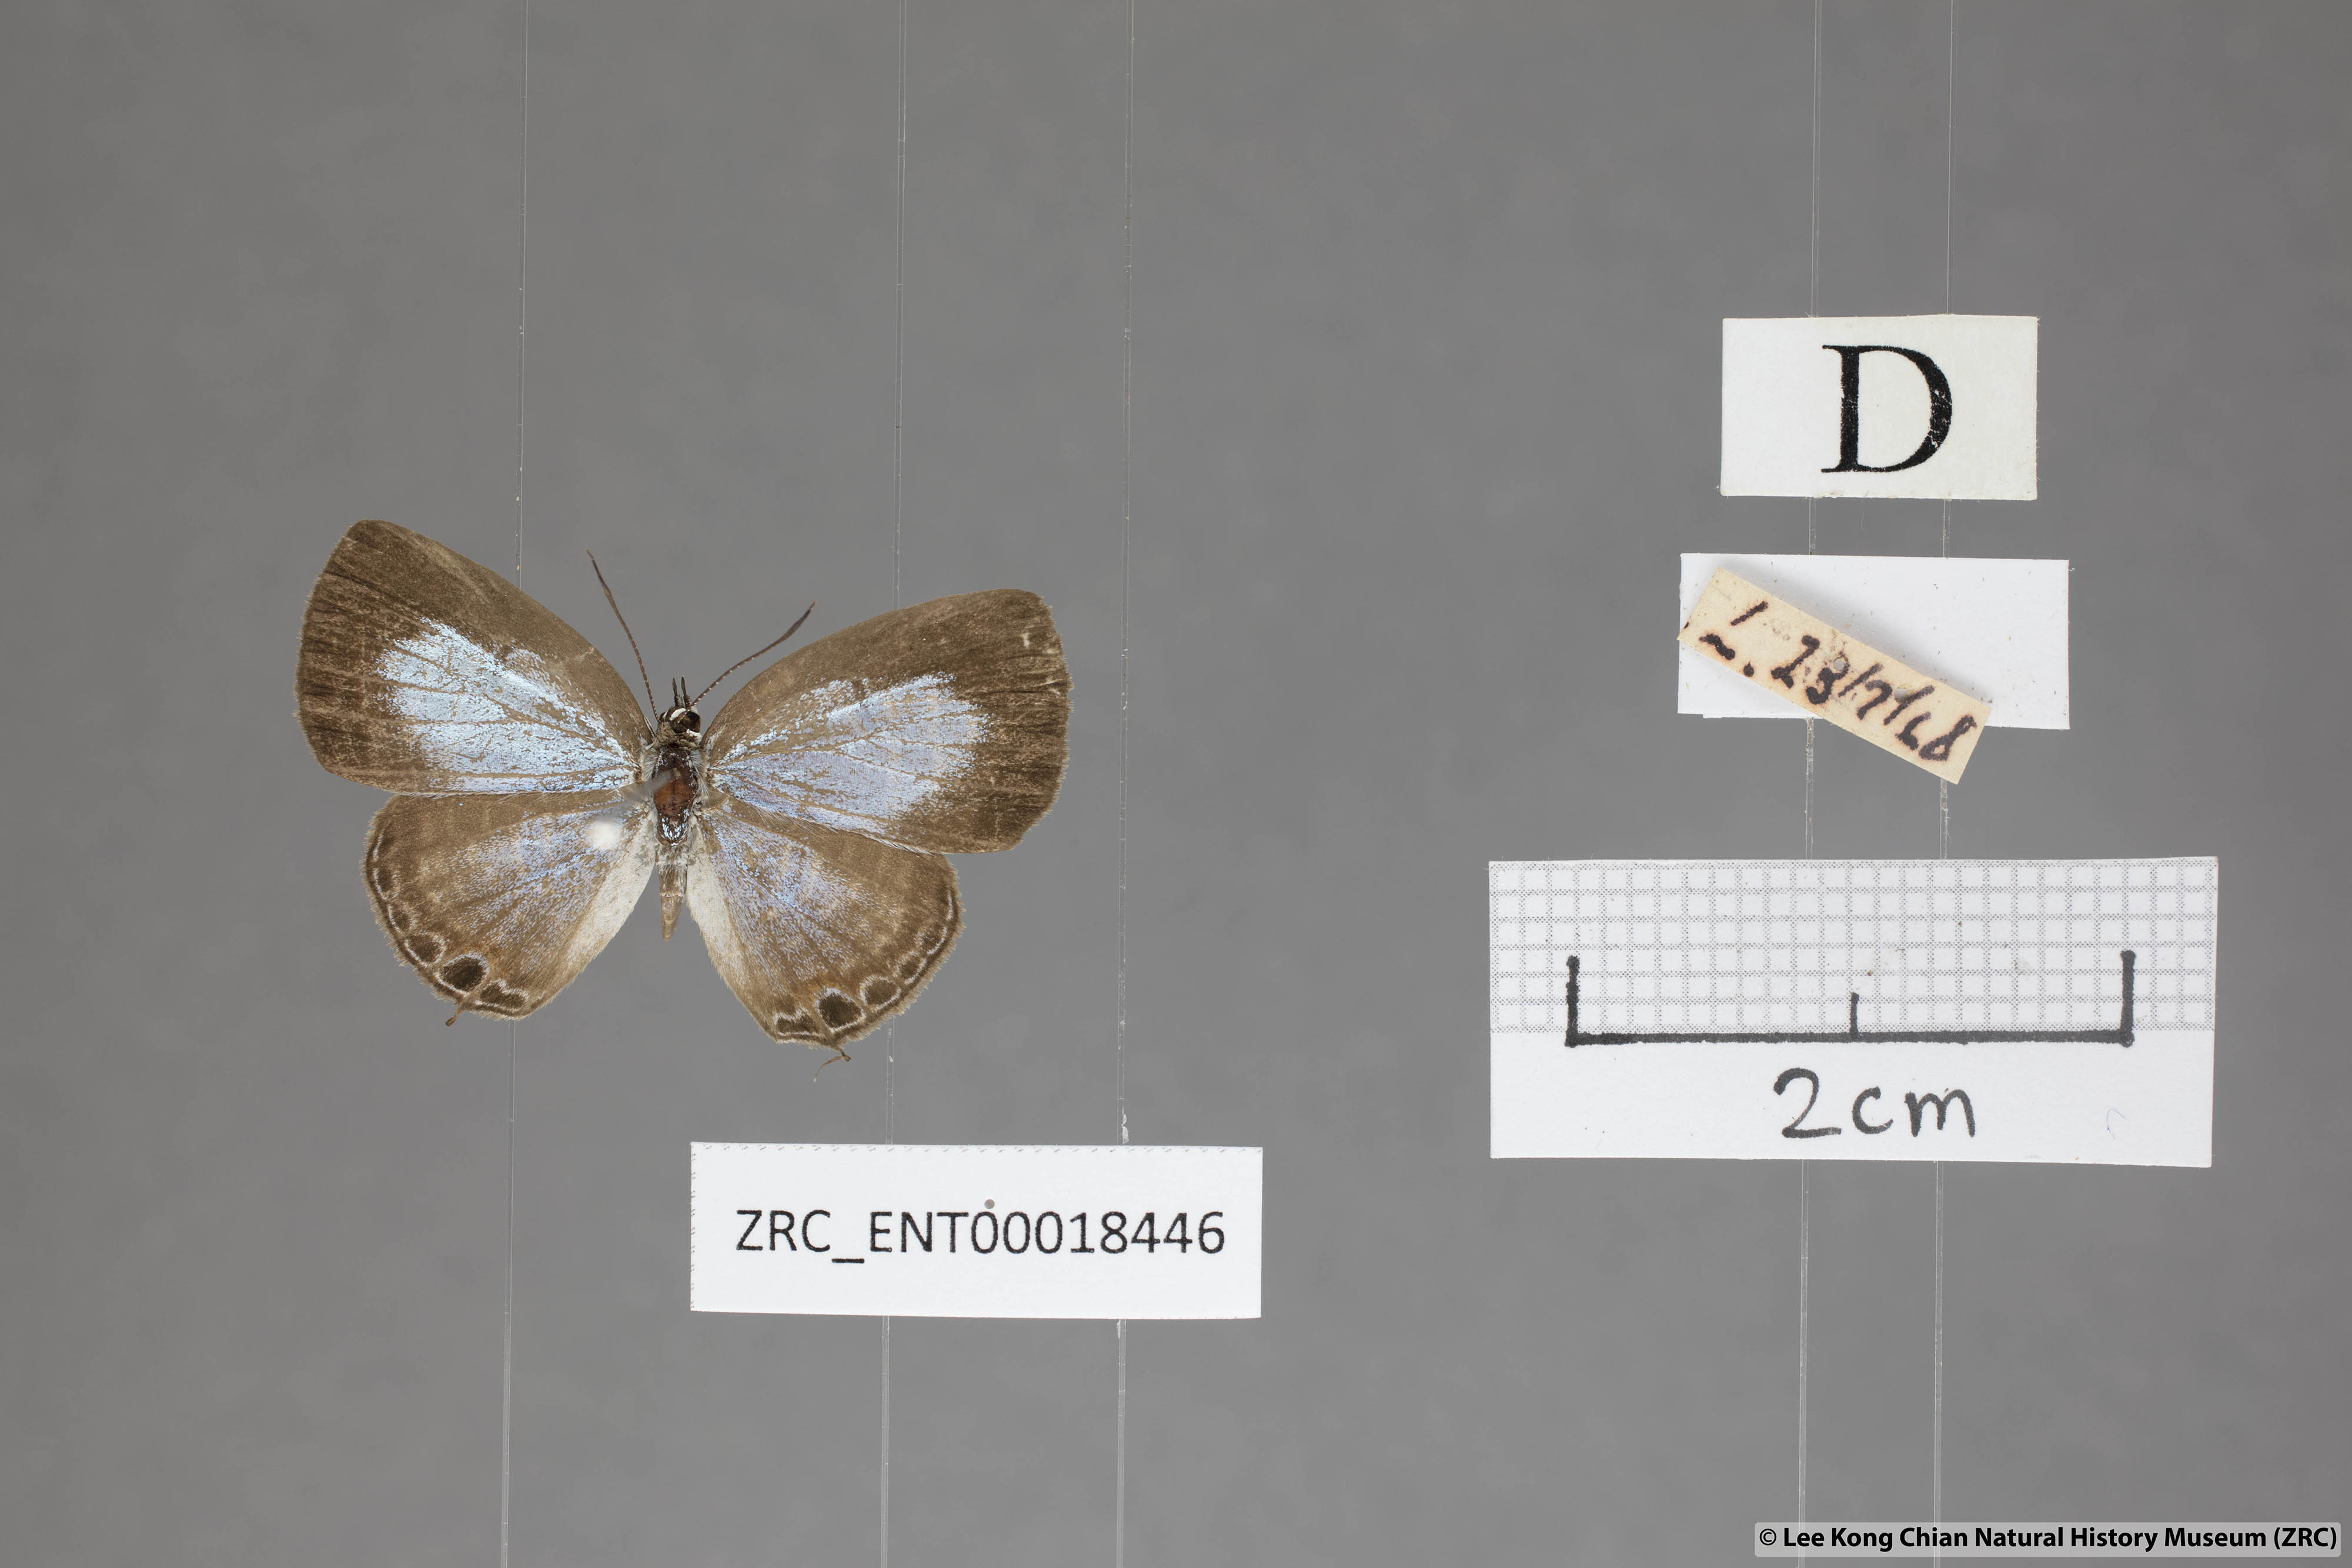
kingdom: Animalia
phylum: Arthropoda
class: Insecta
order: Lepidoptera
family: Lycaenidae
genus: Nacaduba
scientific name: Nacaduba sanaya
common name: Jewel fourline blue
